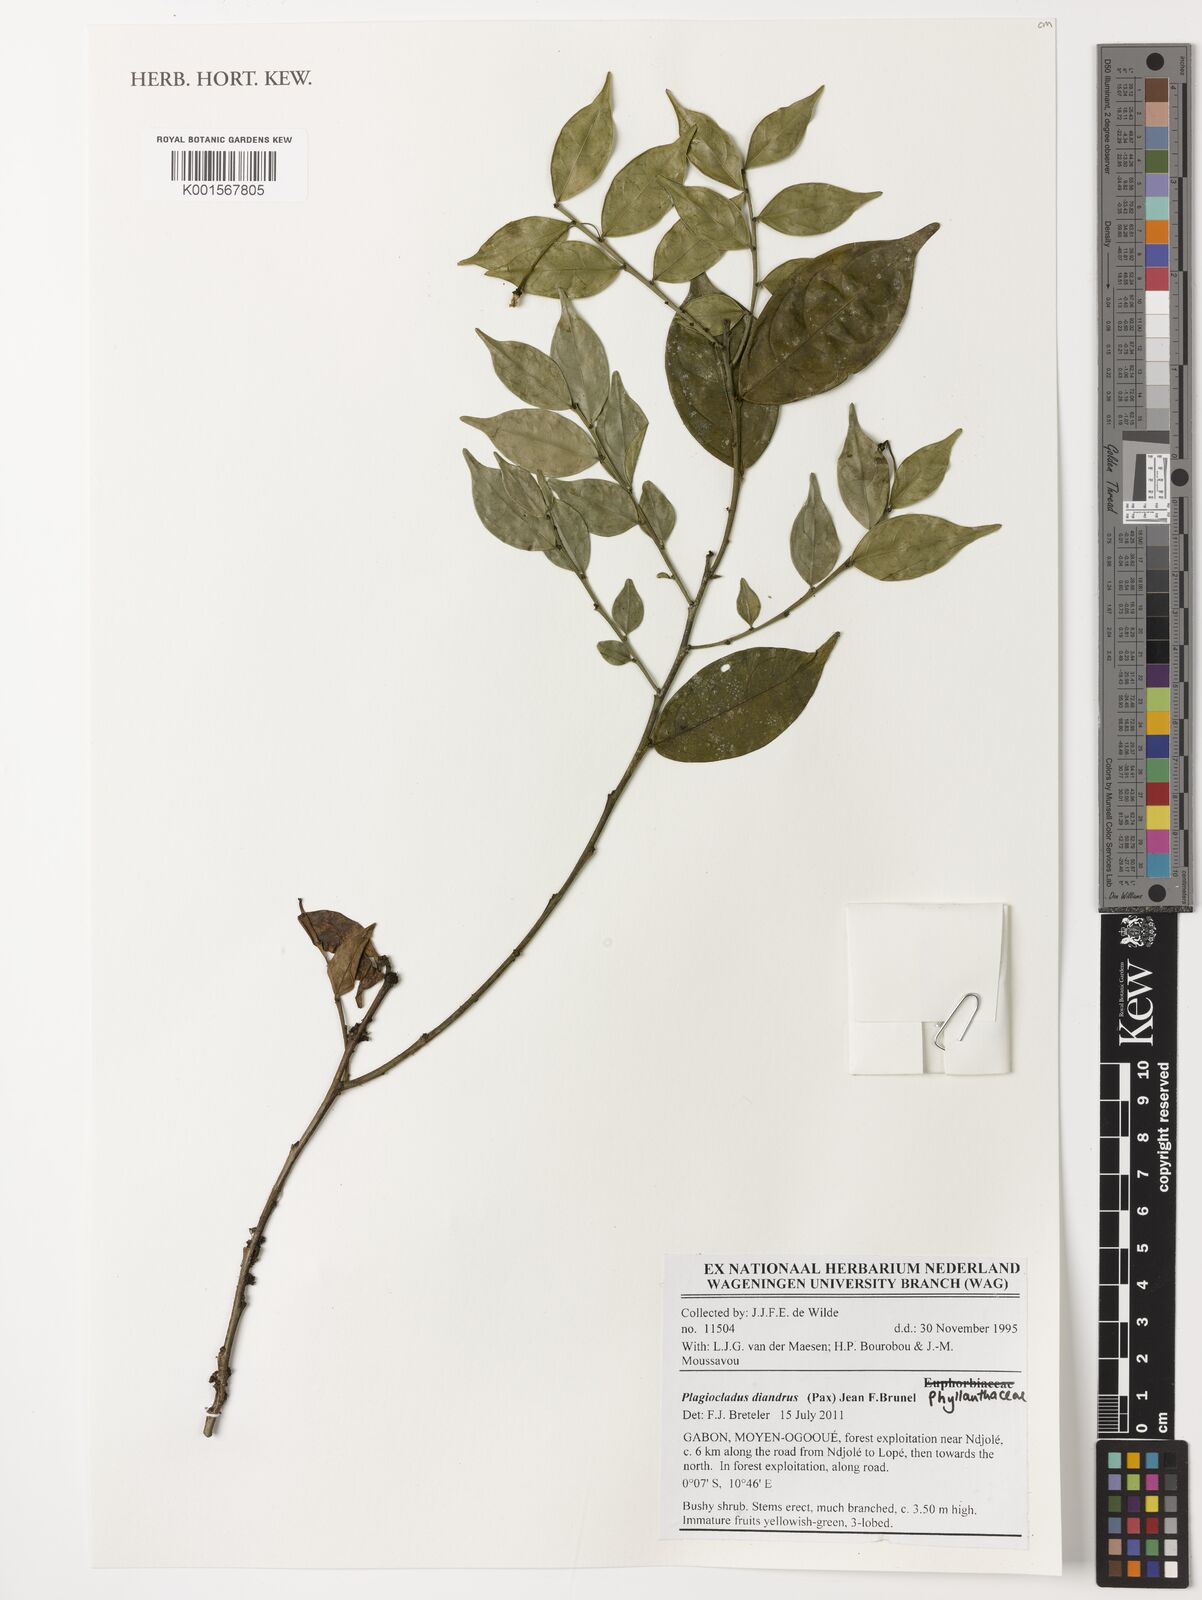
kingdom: Plantae
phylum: Tracheophyta
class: Magnoliopsida
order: Malpighiales
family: Phyllanthaceae
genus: Plagiocladus
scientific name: Plagiocladus diandrus
